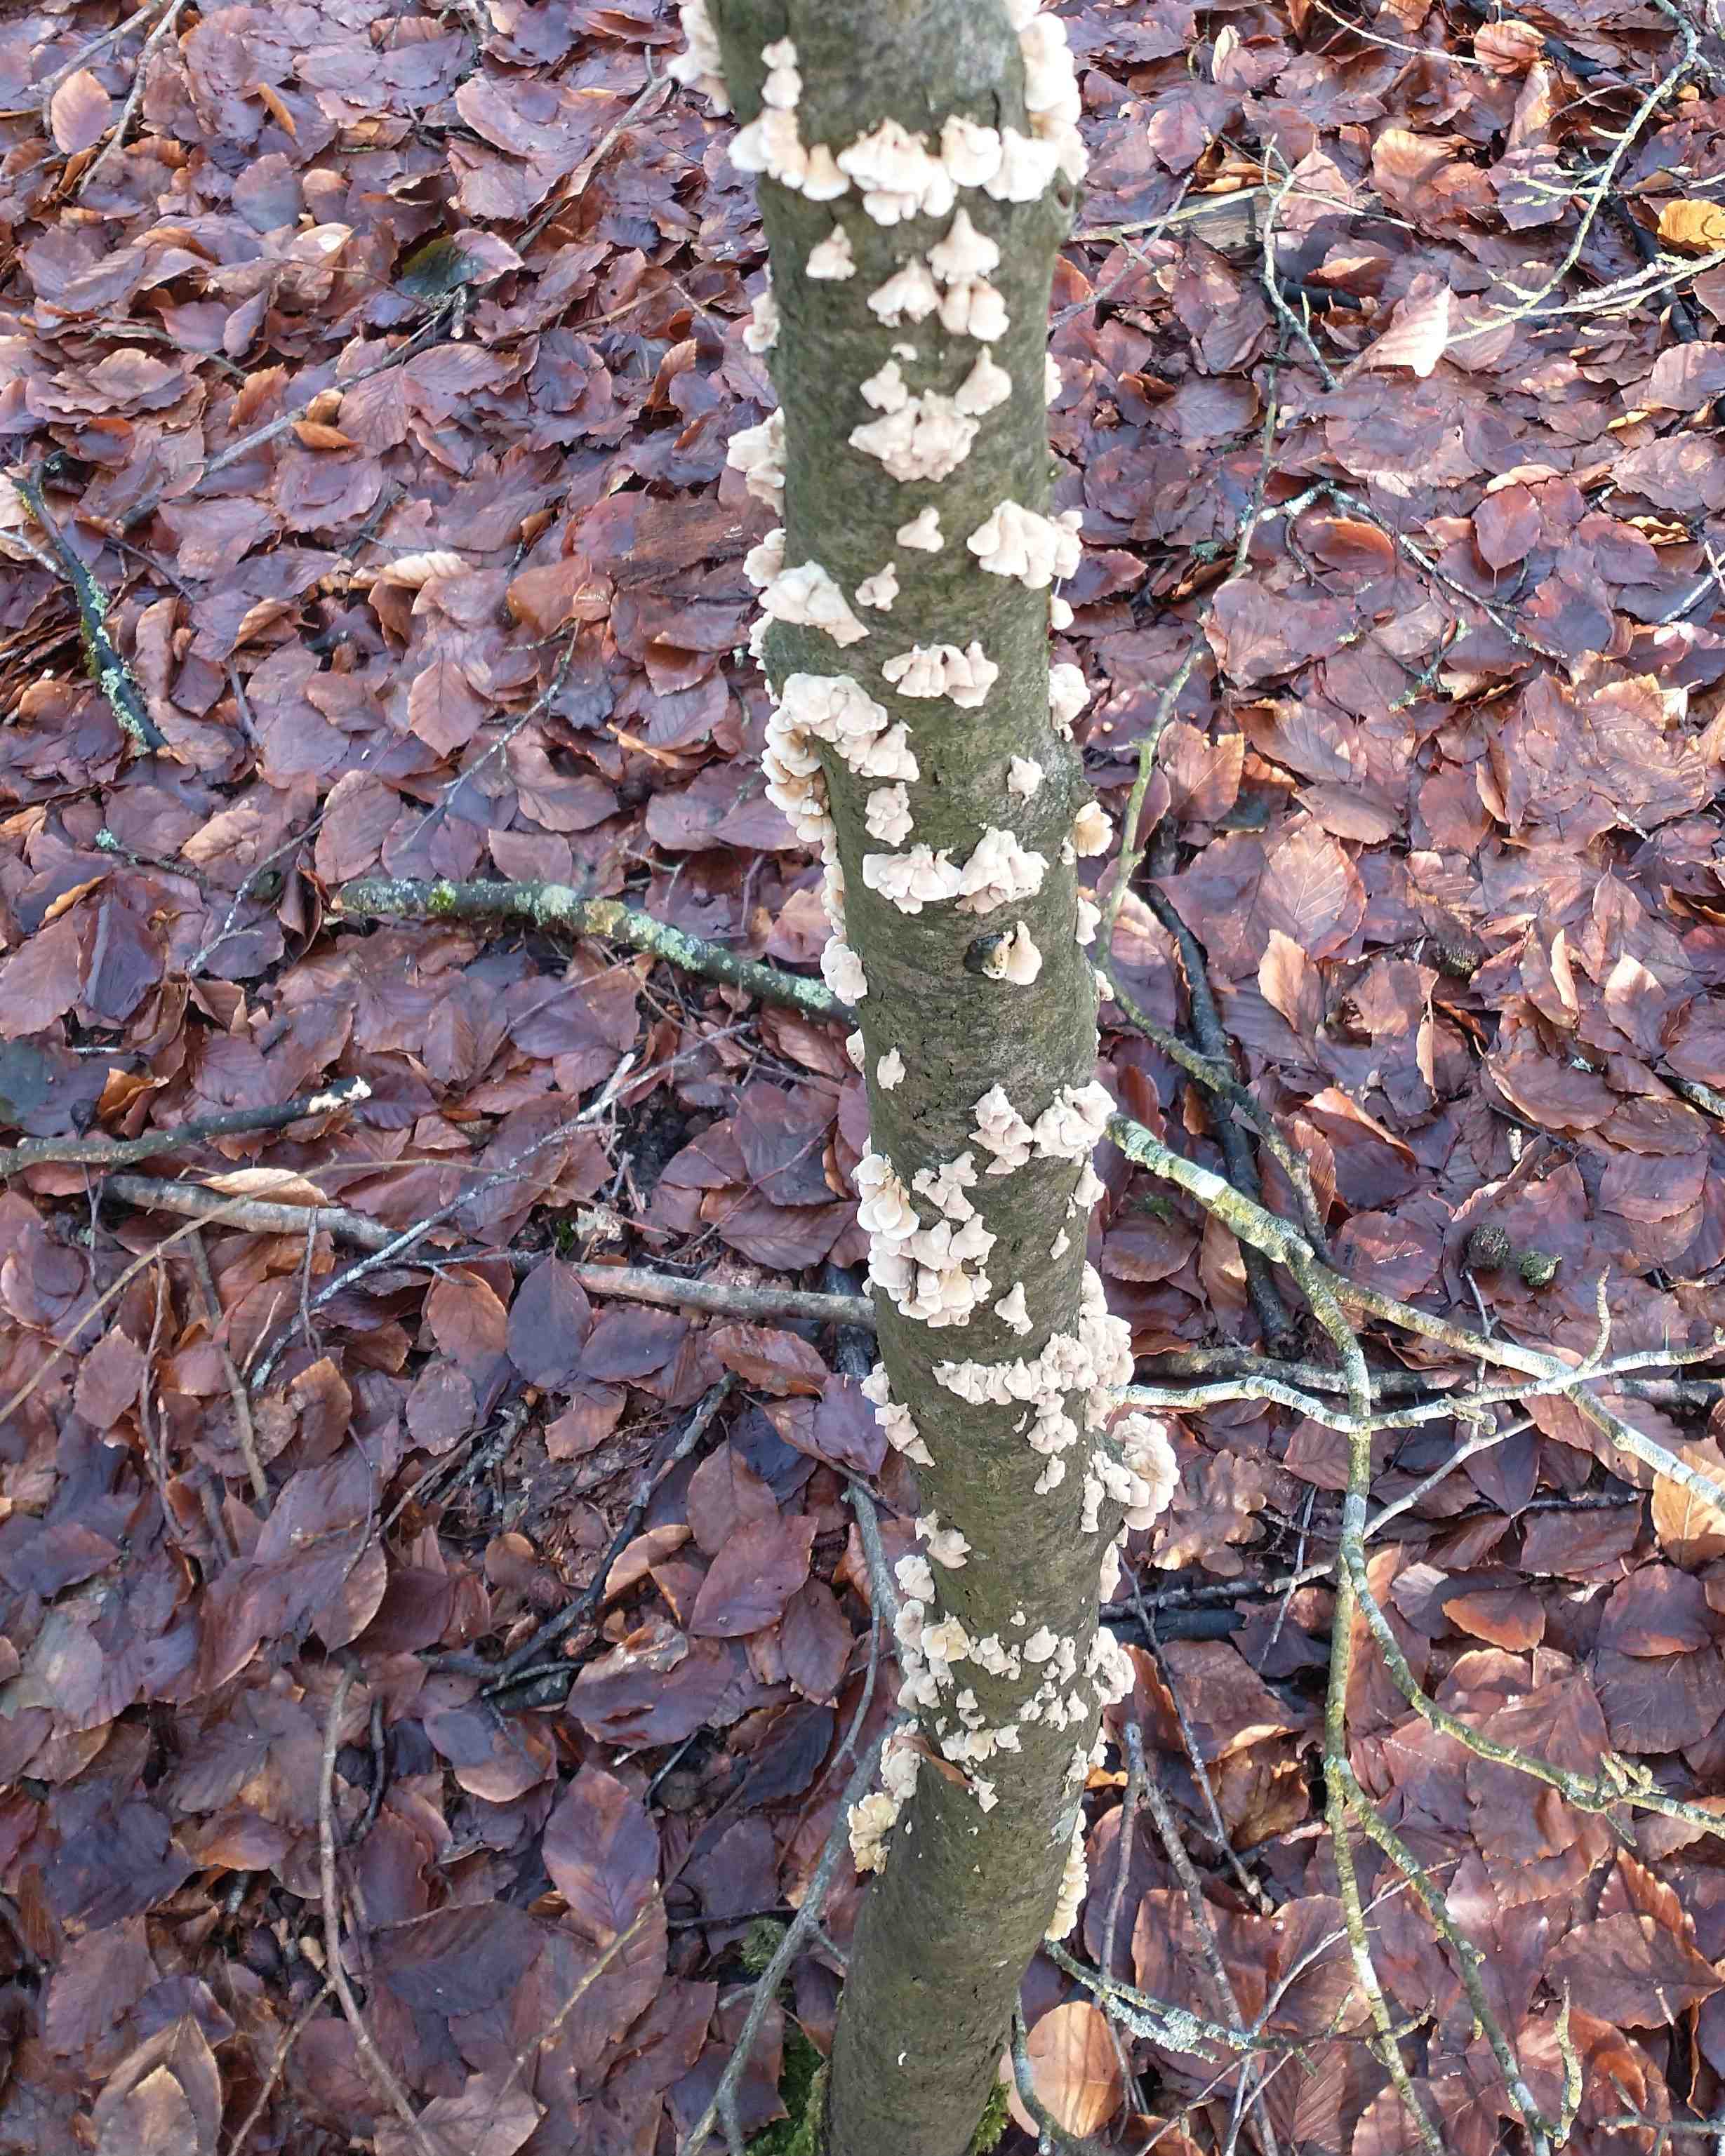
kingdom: Fungi
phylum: Basidiomycota
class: Agaricomycetes
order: Amylocorticiales
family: Amylocorticiaceae
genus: Plicaturopsis
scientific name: Plicaturopsis crispa
